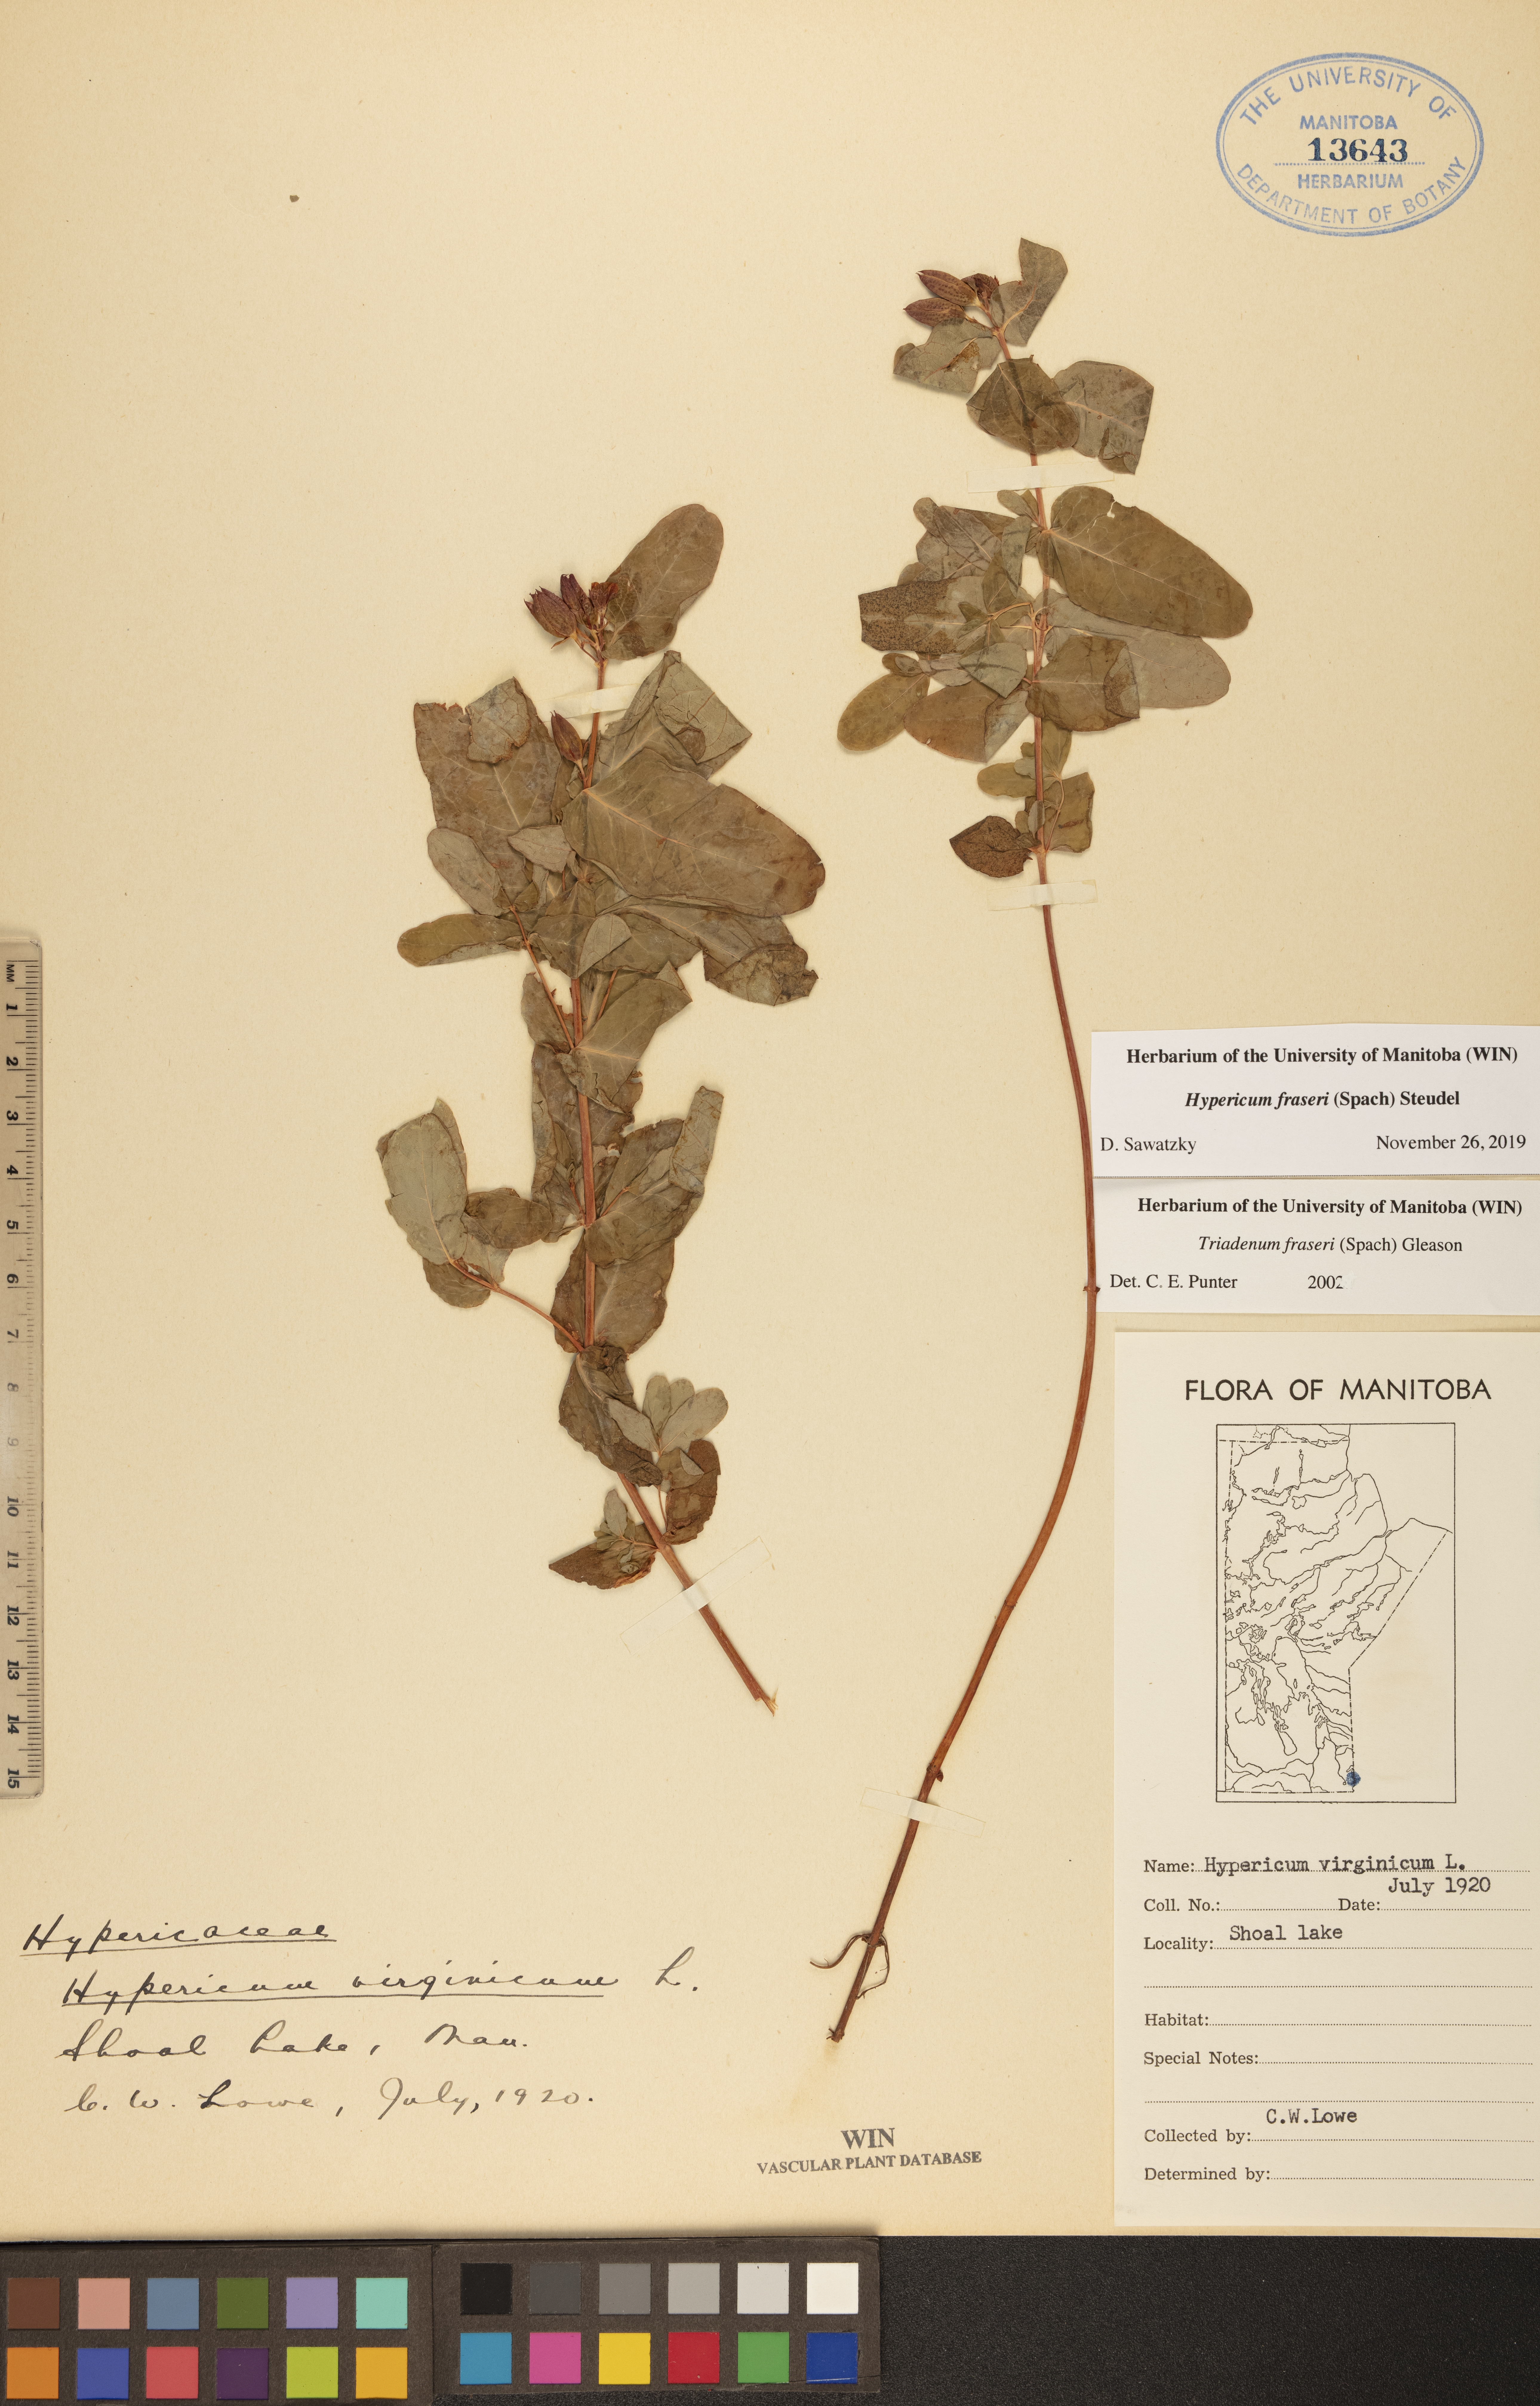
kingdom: Plantae
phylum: Tracheophyta
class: Magnoliopsida
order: Malpighiales
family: Hypericaceae
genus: Triadenum
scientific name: Triadenum fraseri
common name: Fraser's marsh st. johnswort
